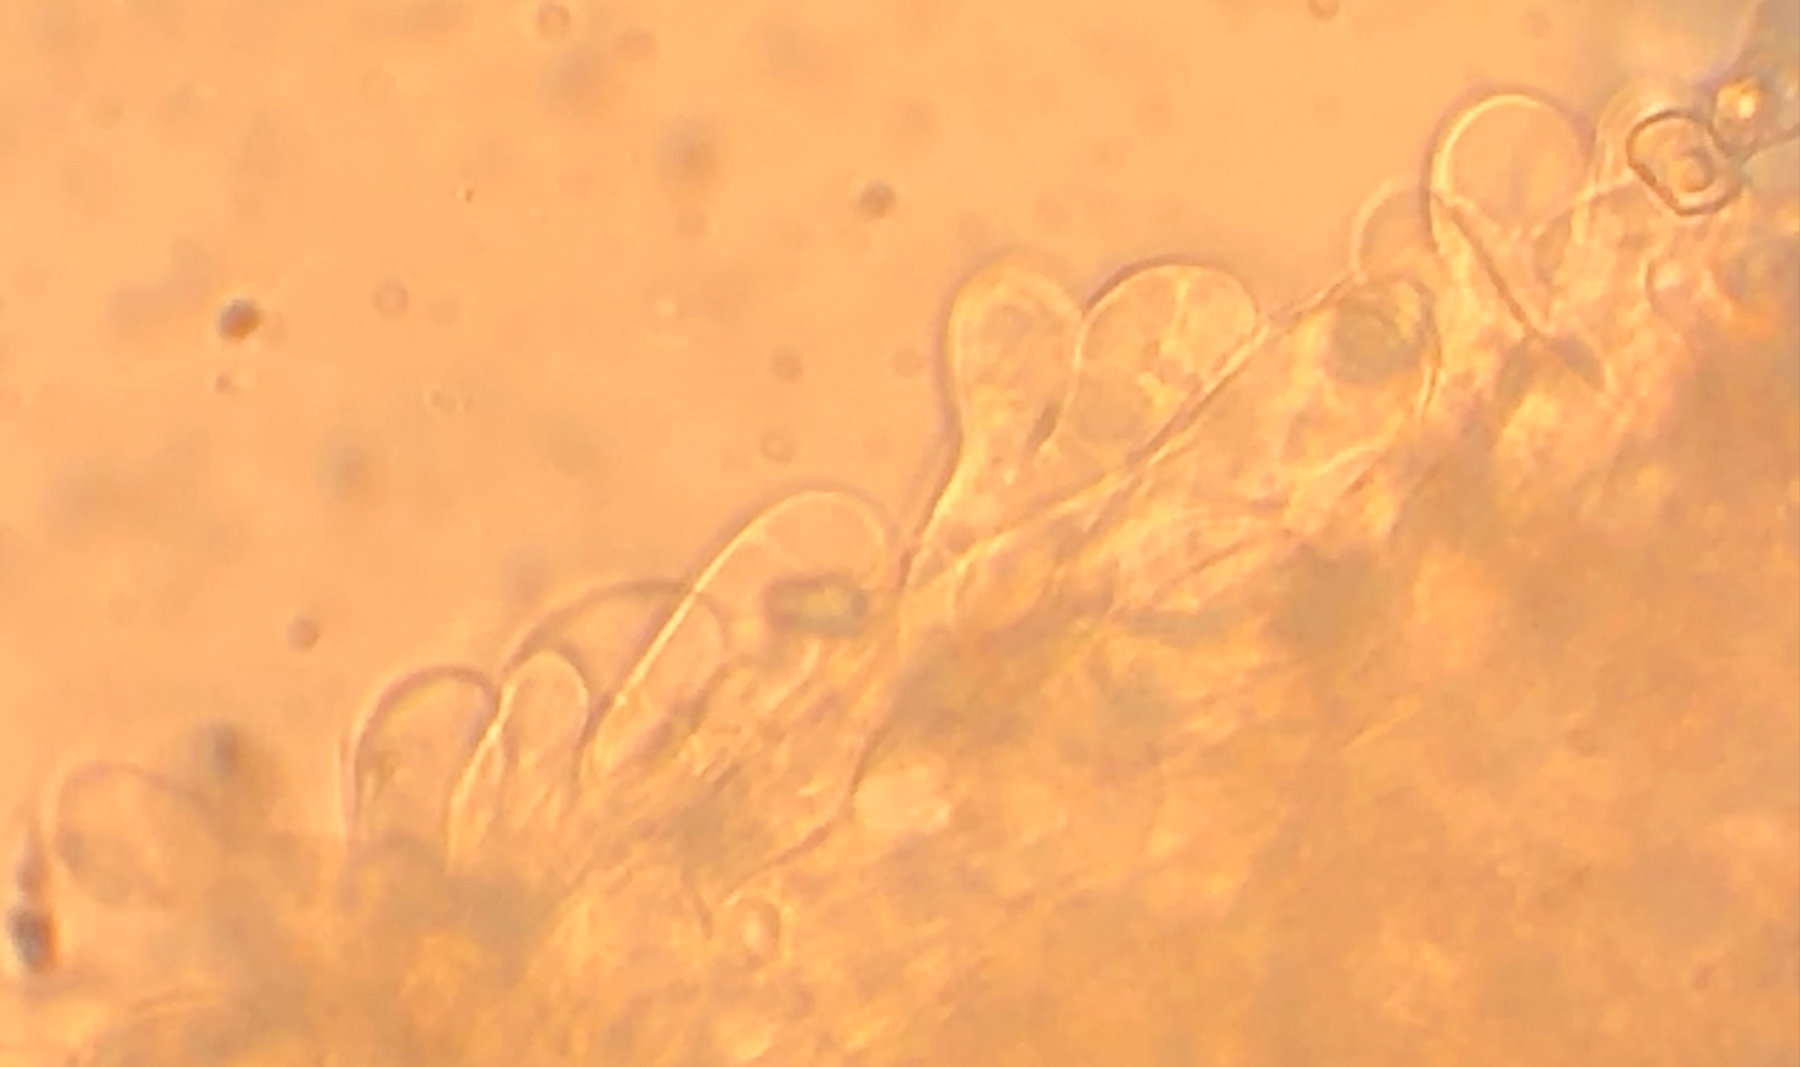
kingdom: Fungi
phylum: Basidiomycota
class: Agaricomycetes
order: Agaricales
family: Entolomataceae
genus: Entoloma
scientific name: Entoloma allospermum
